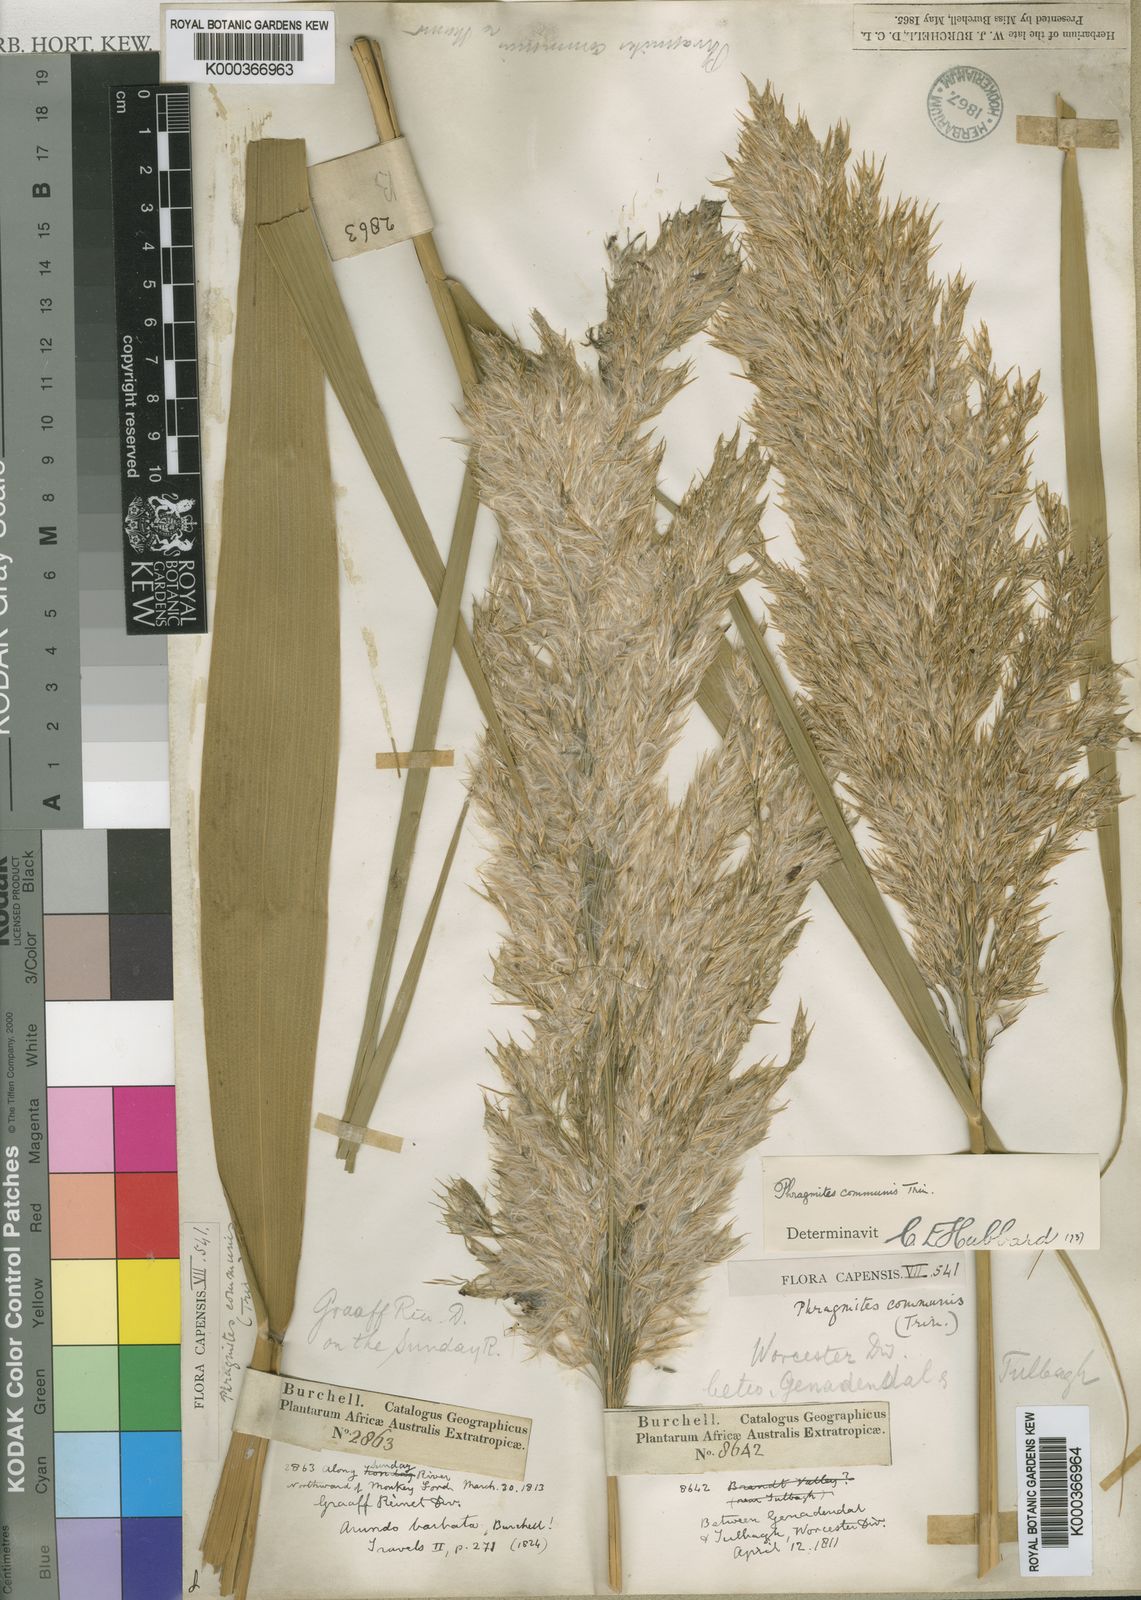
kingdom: Plantae
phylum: Tracheophyta
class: Liliopsida
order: Poales
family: Poaceae
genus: Phragmites
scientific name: Phragmites australis
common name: Common reed
